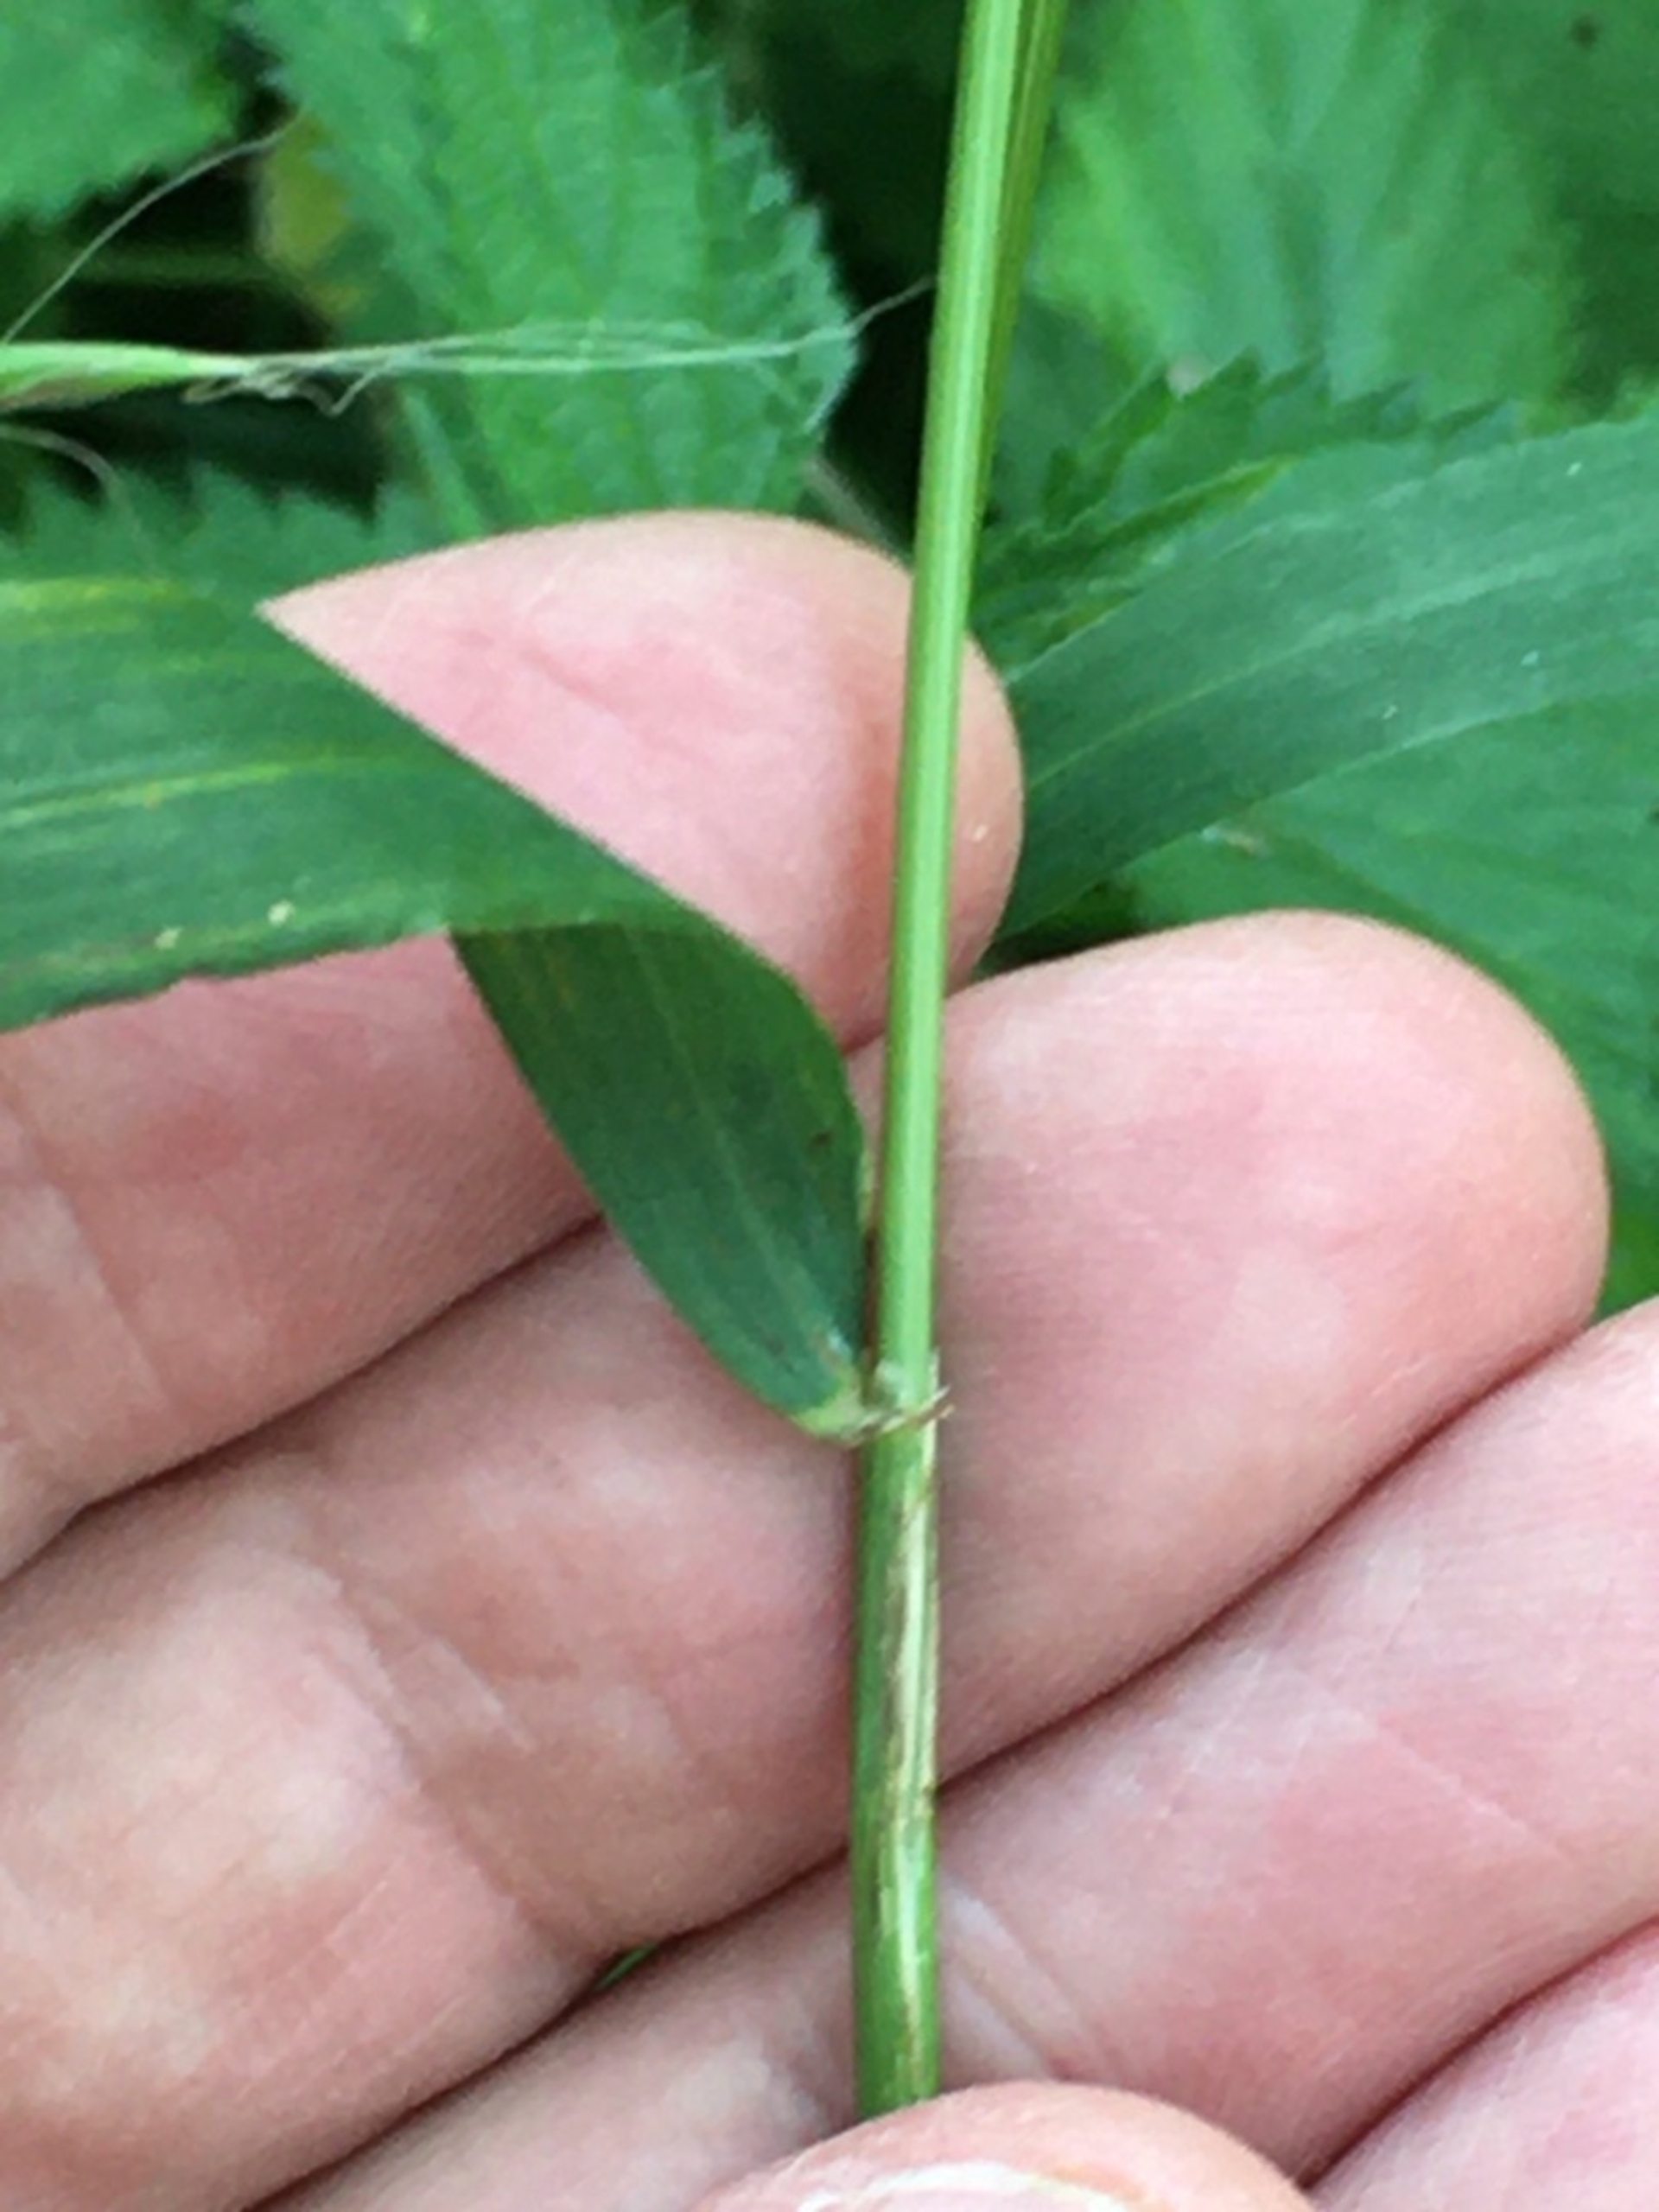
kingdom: Plantae
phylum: Tracheophyta
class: Liliopsida
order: Poales
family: Poaceae
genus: Elymus
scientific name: Elymus caninus
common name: Hundekvik
